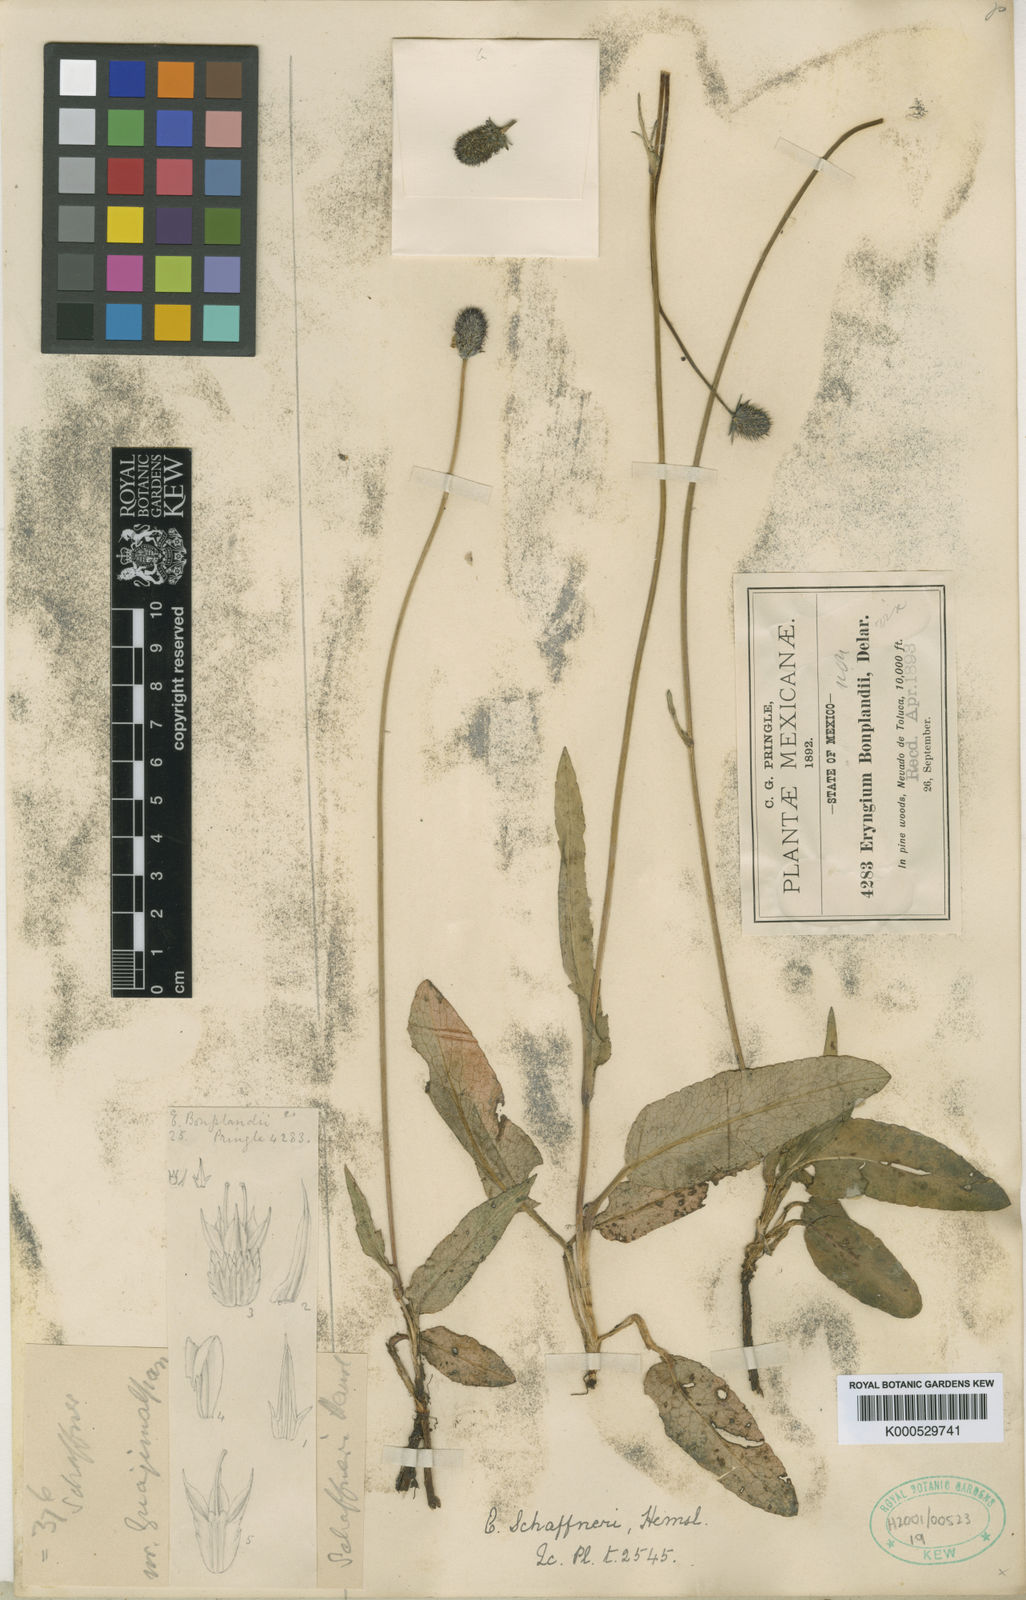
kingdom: Plantae
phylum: Tracheophyta
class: Magnoliopsida
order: Apiales
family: Apiaceae
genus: Eryngium
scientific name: Eryngium bonplandii
